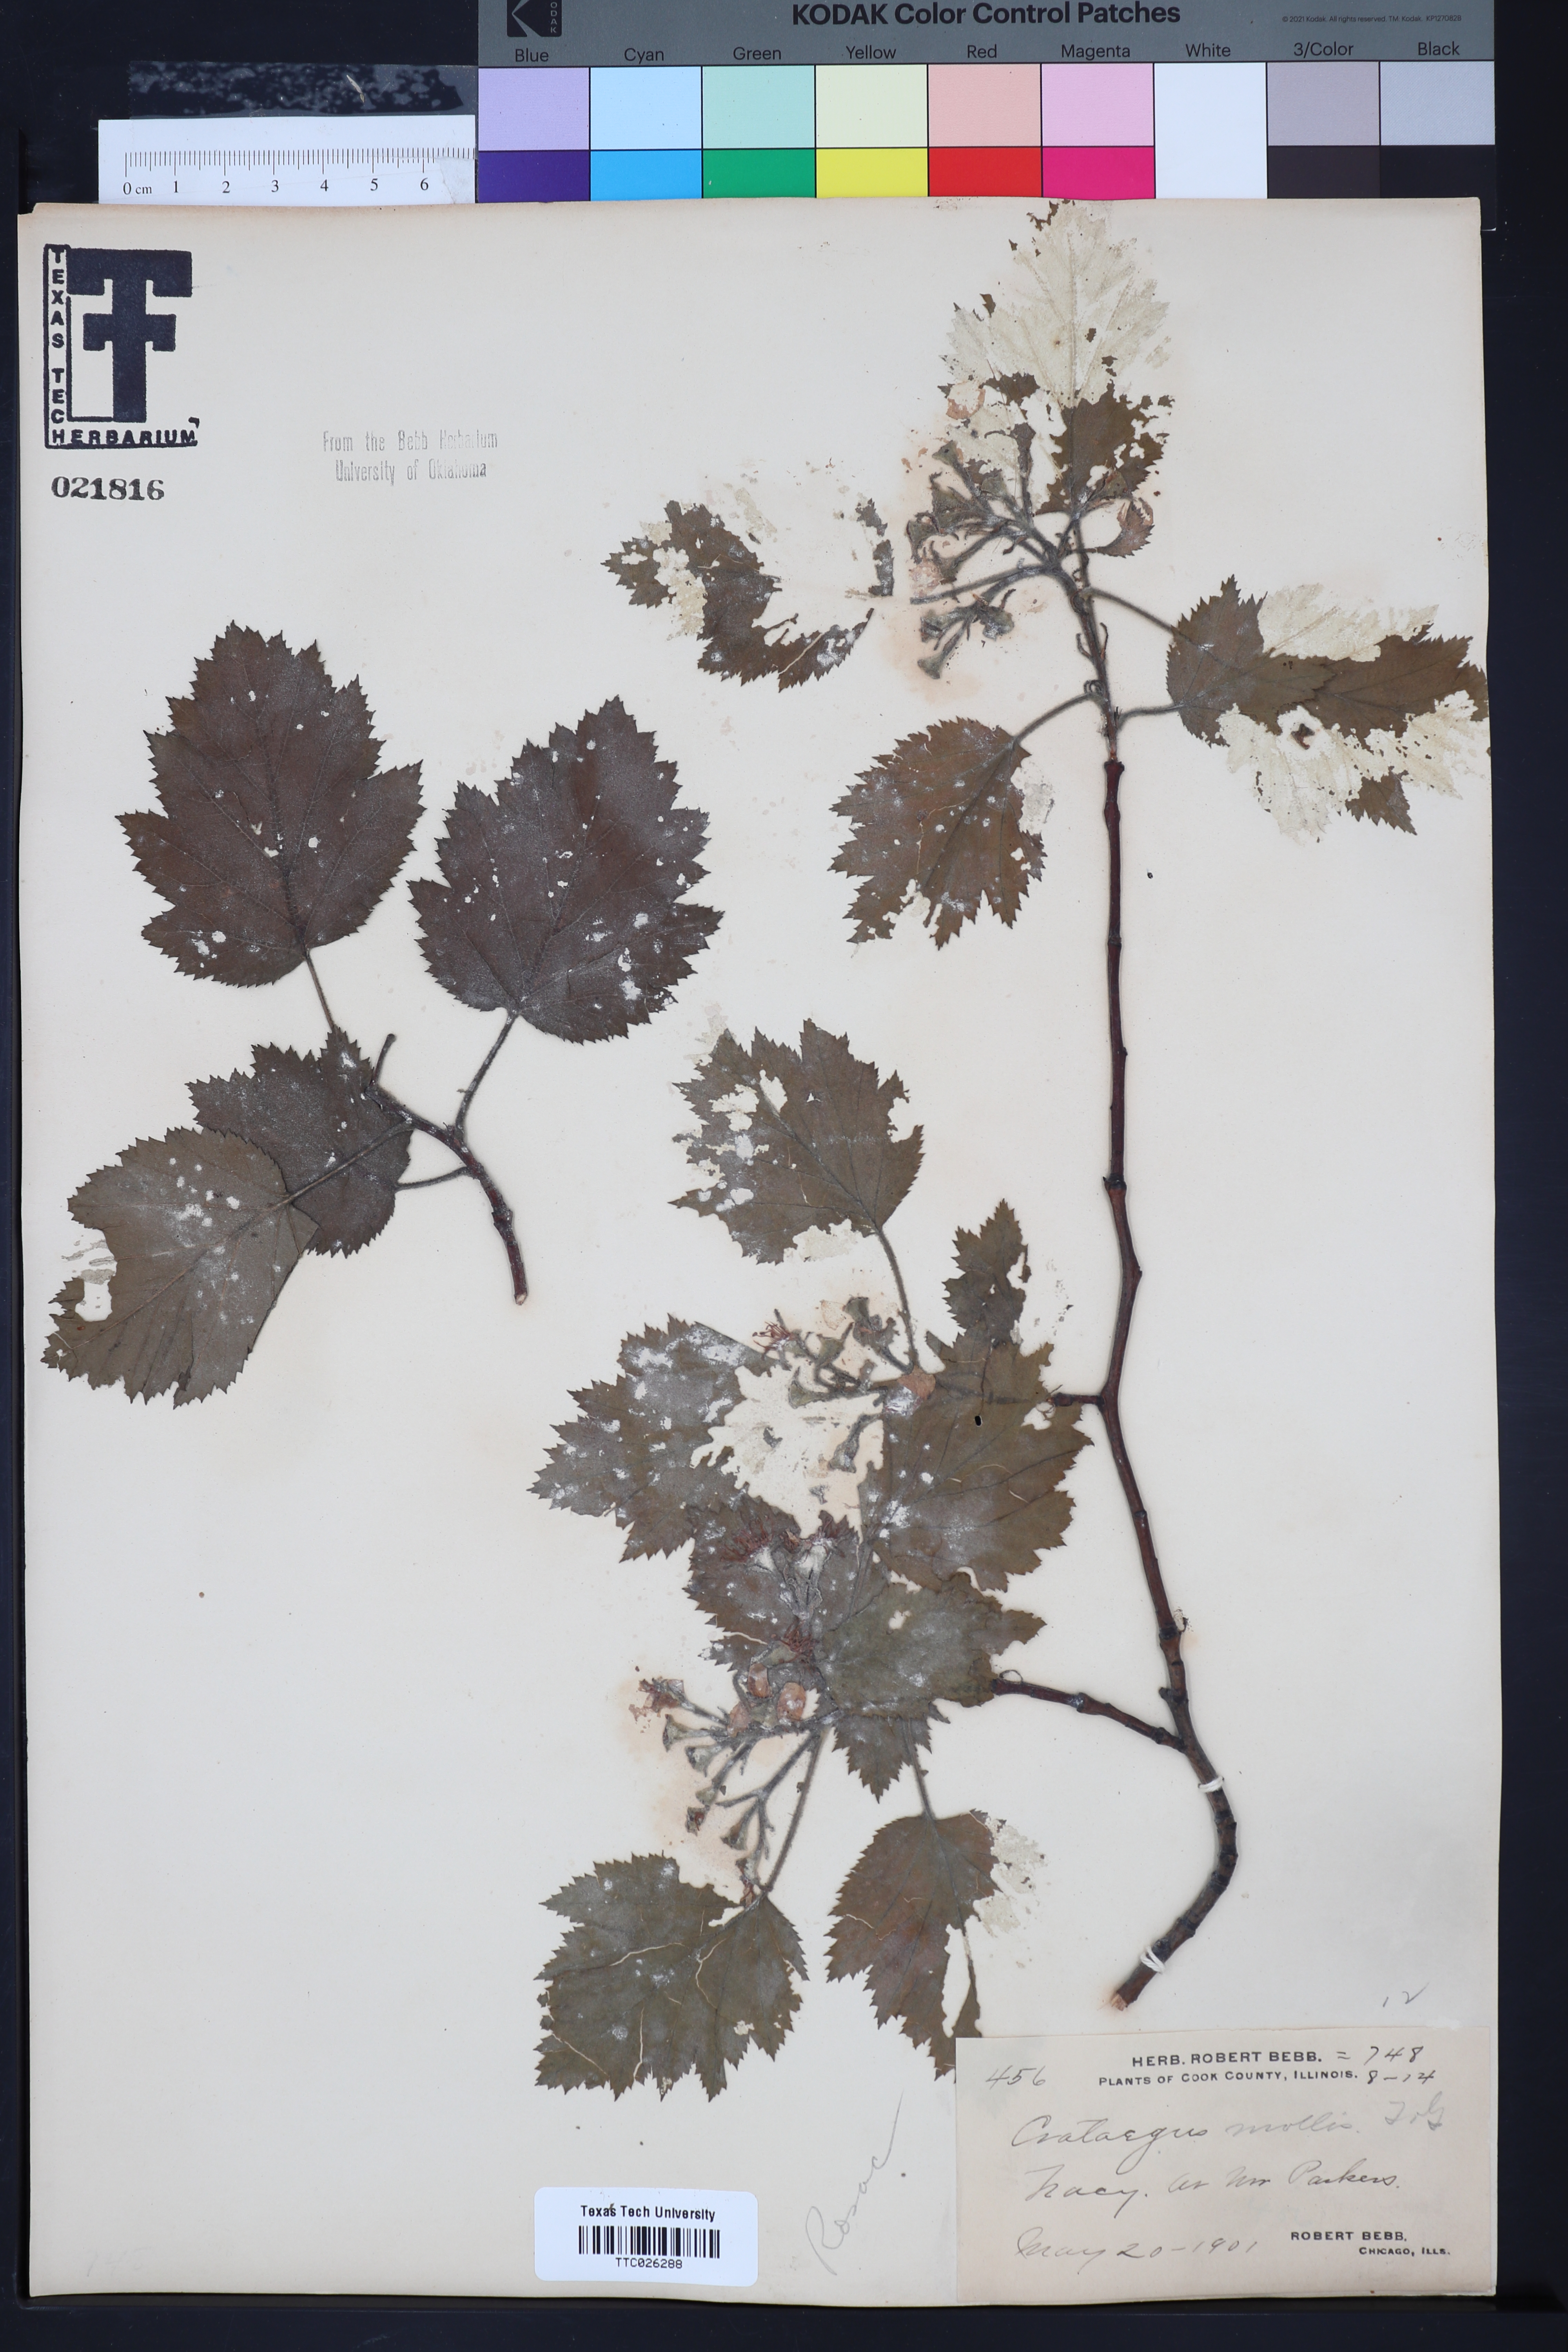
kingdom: Plantae
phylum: Tracheophyta
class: Magnoliopsida
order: Rosales
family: Rosaceae
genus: Crataegus
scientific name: Crataegus mollis
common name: Downy hawthorn
